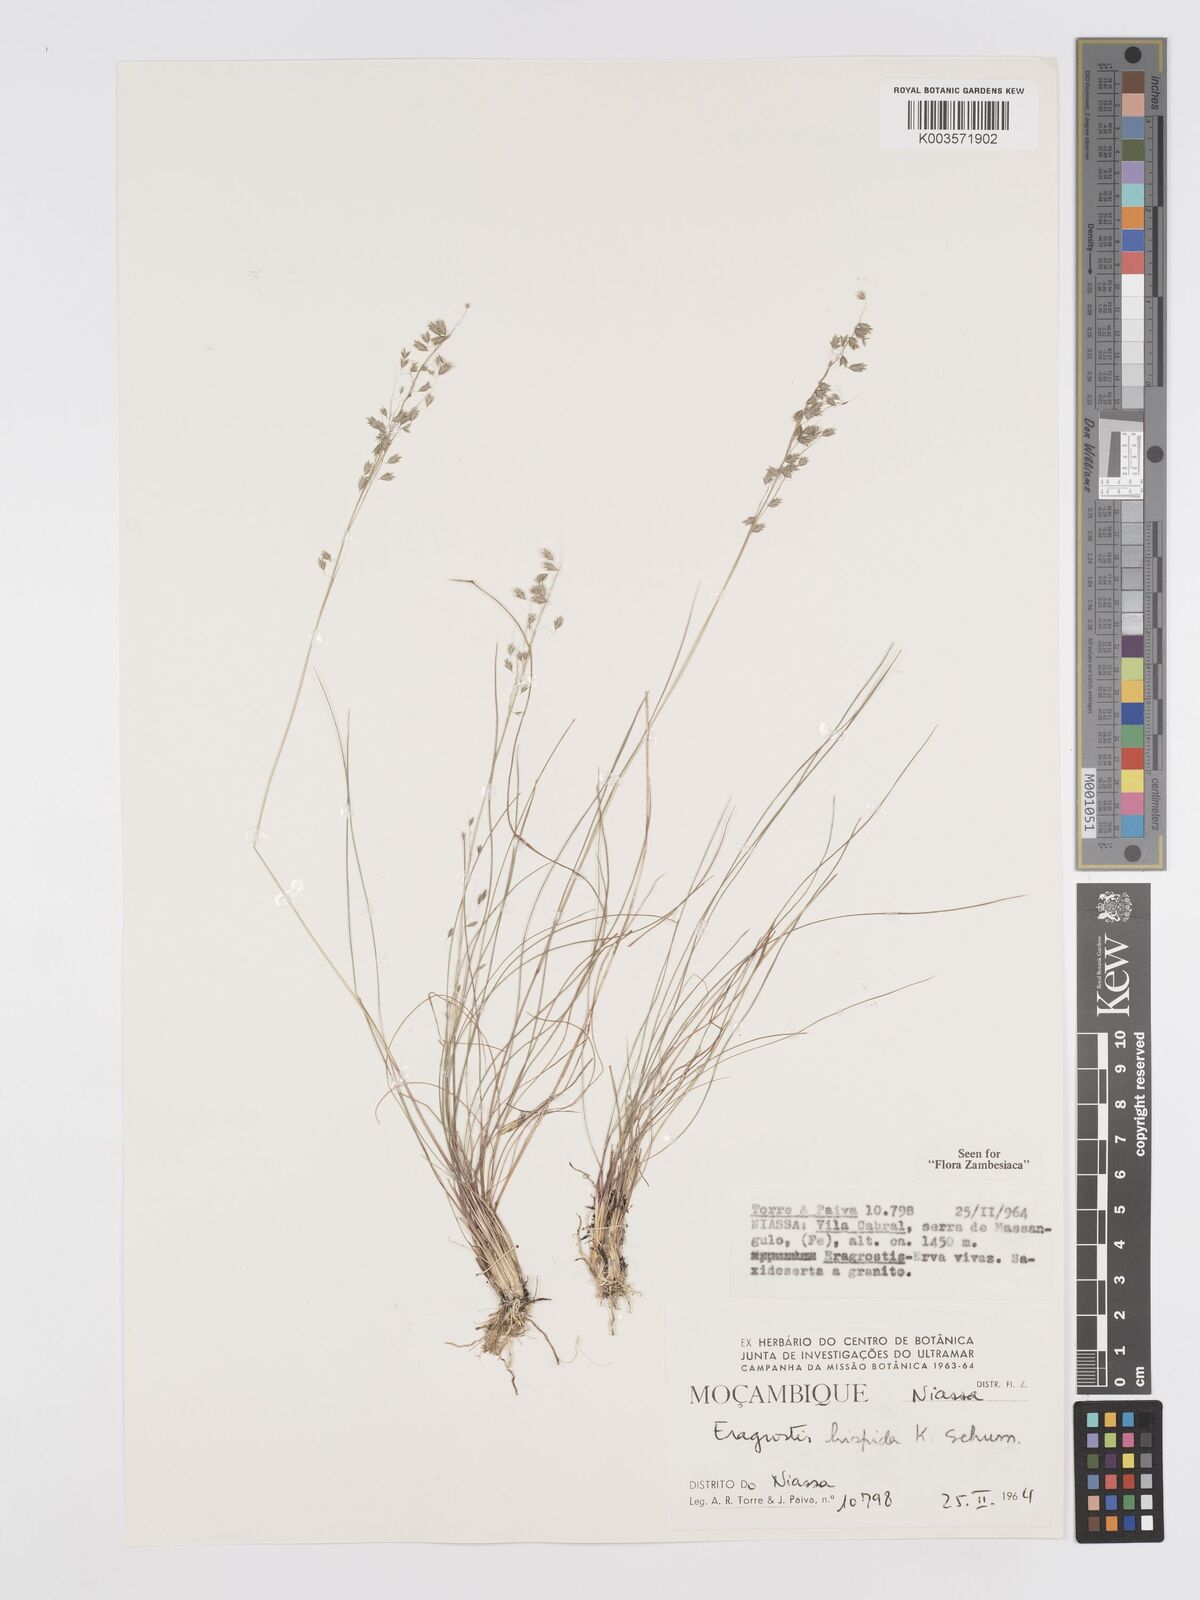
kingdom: Plantae
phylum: Tracheophyta
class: Liliopsida
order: Poales
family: Poaceae
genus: Eragrostis
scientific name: Eragrostis olivacea
